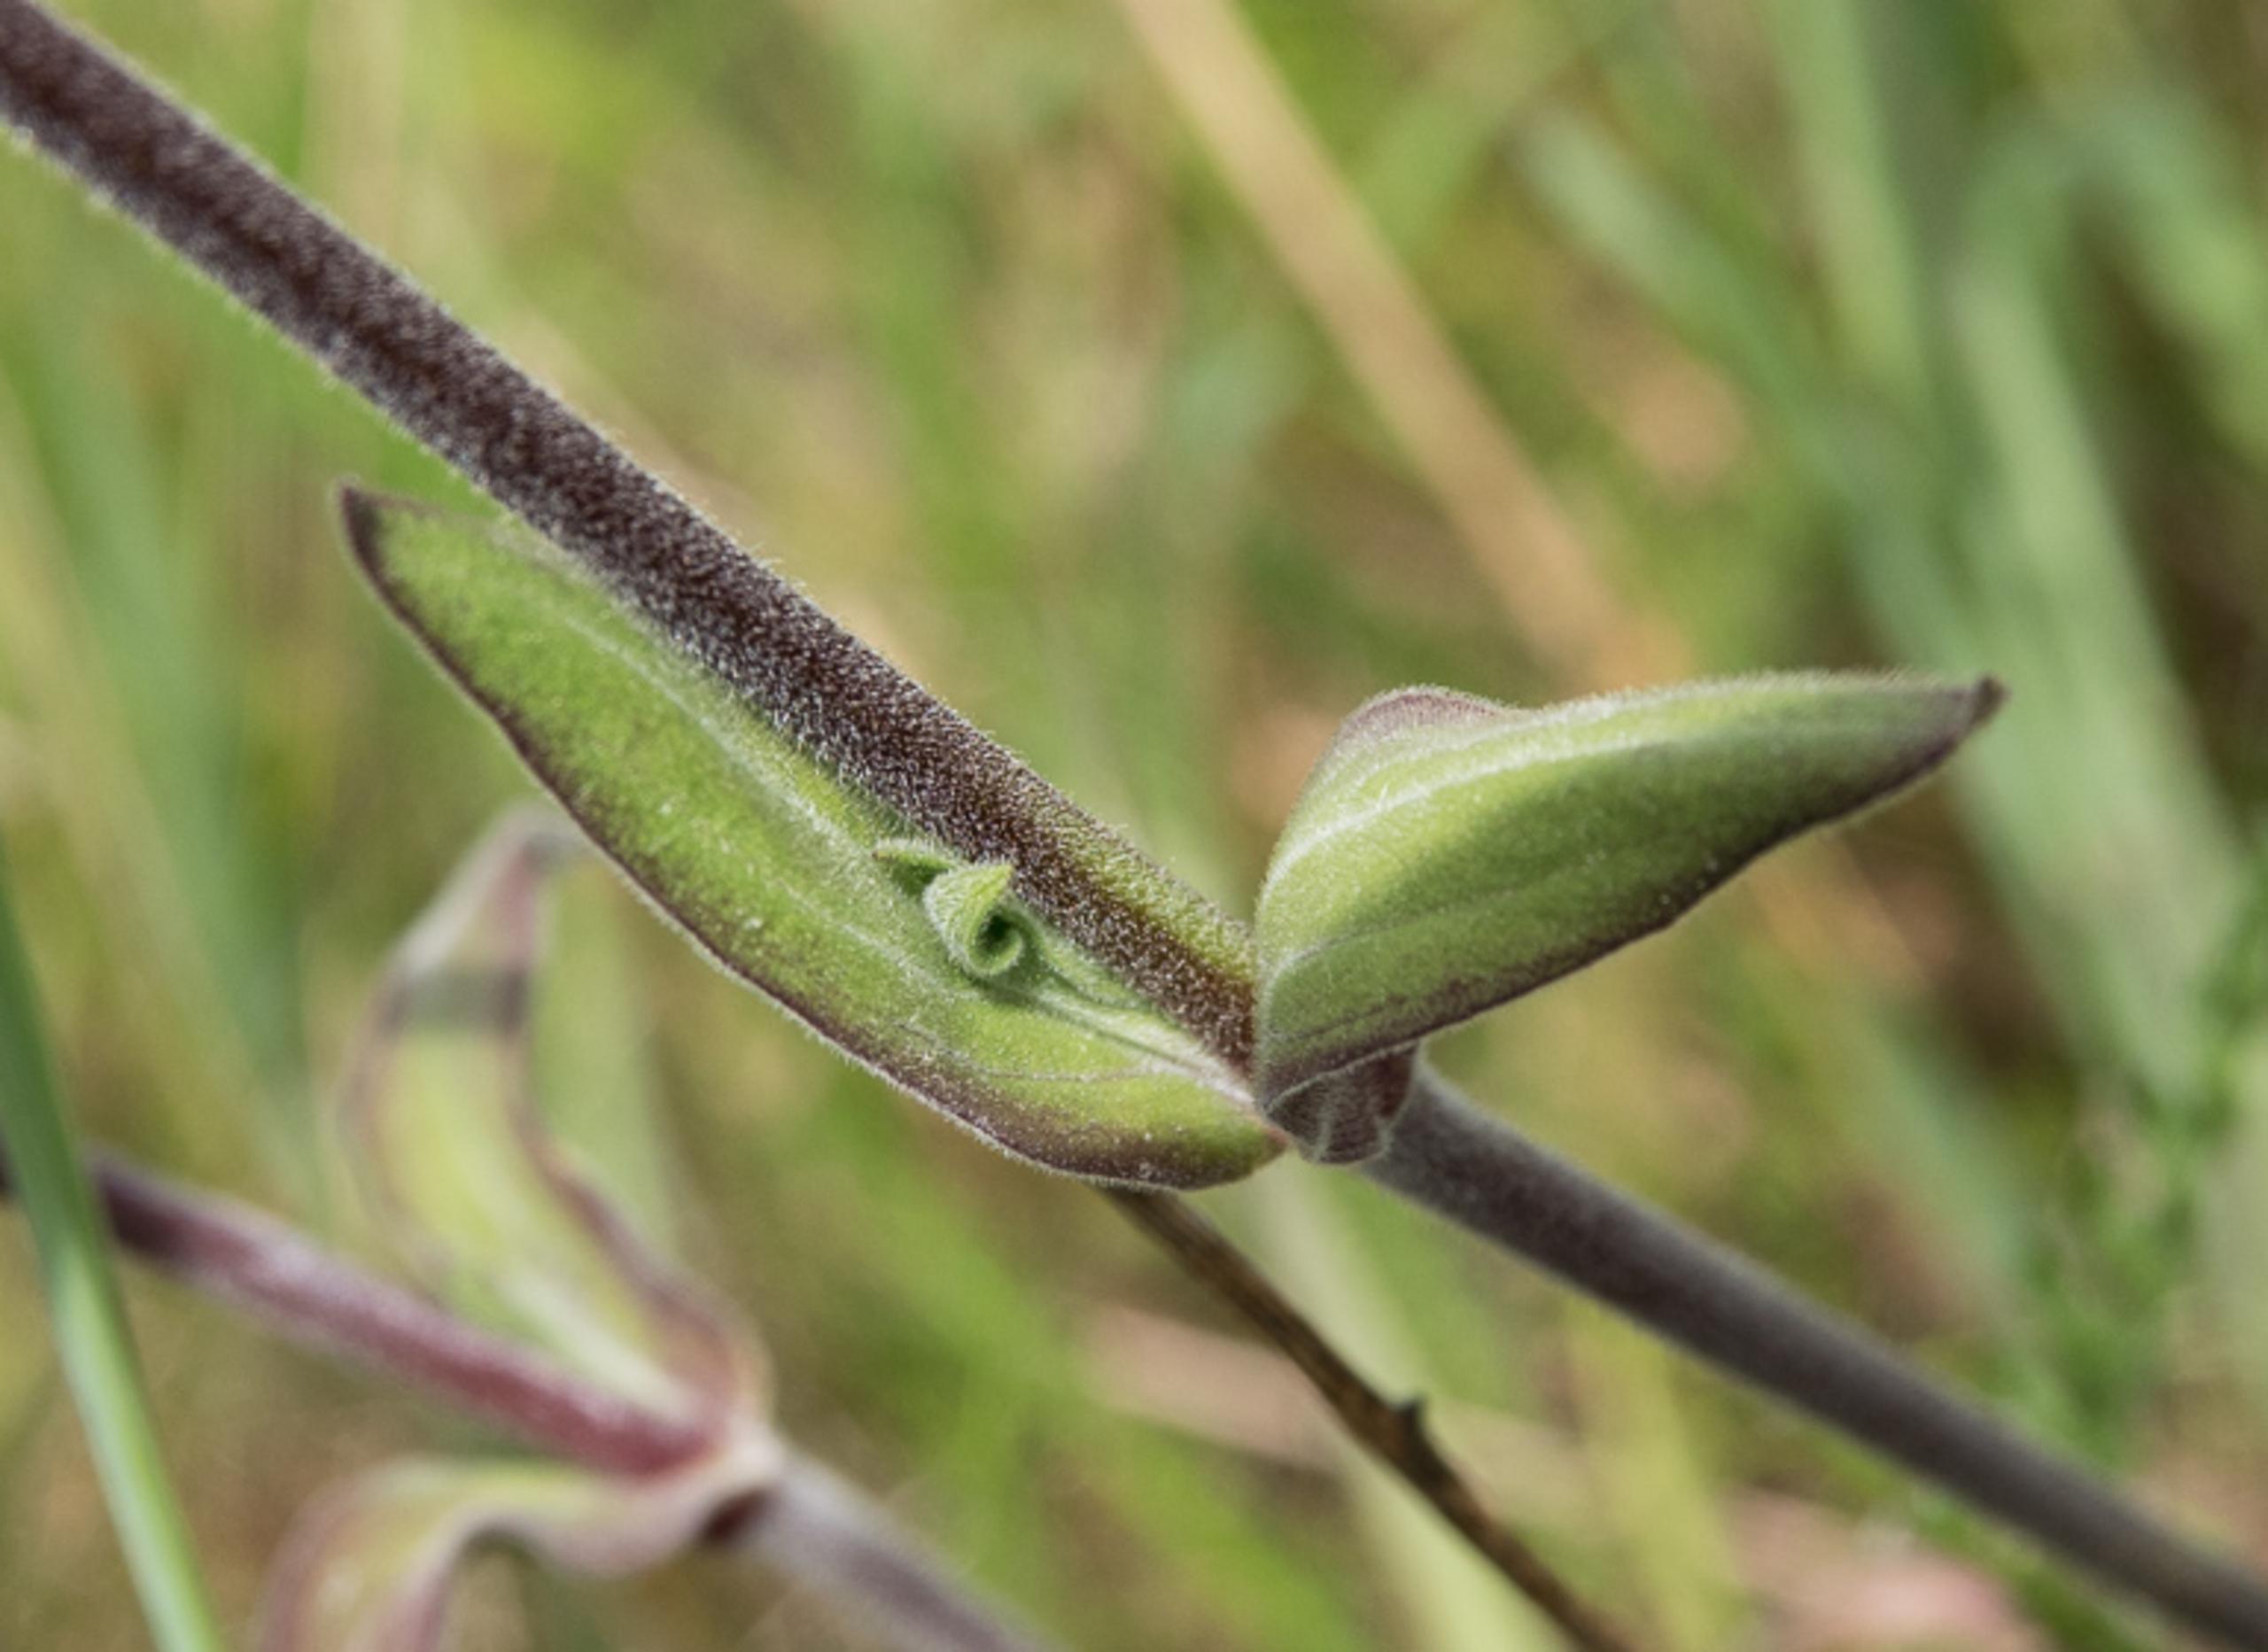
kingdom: Plantae
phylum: Tracheophyta
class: Magnoliopsida
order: Caryophyllales
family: Caryophyllaceae
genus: Silene
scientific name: Silene latifolia
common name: Aftenpragtstjerne
